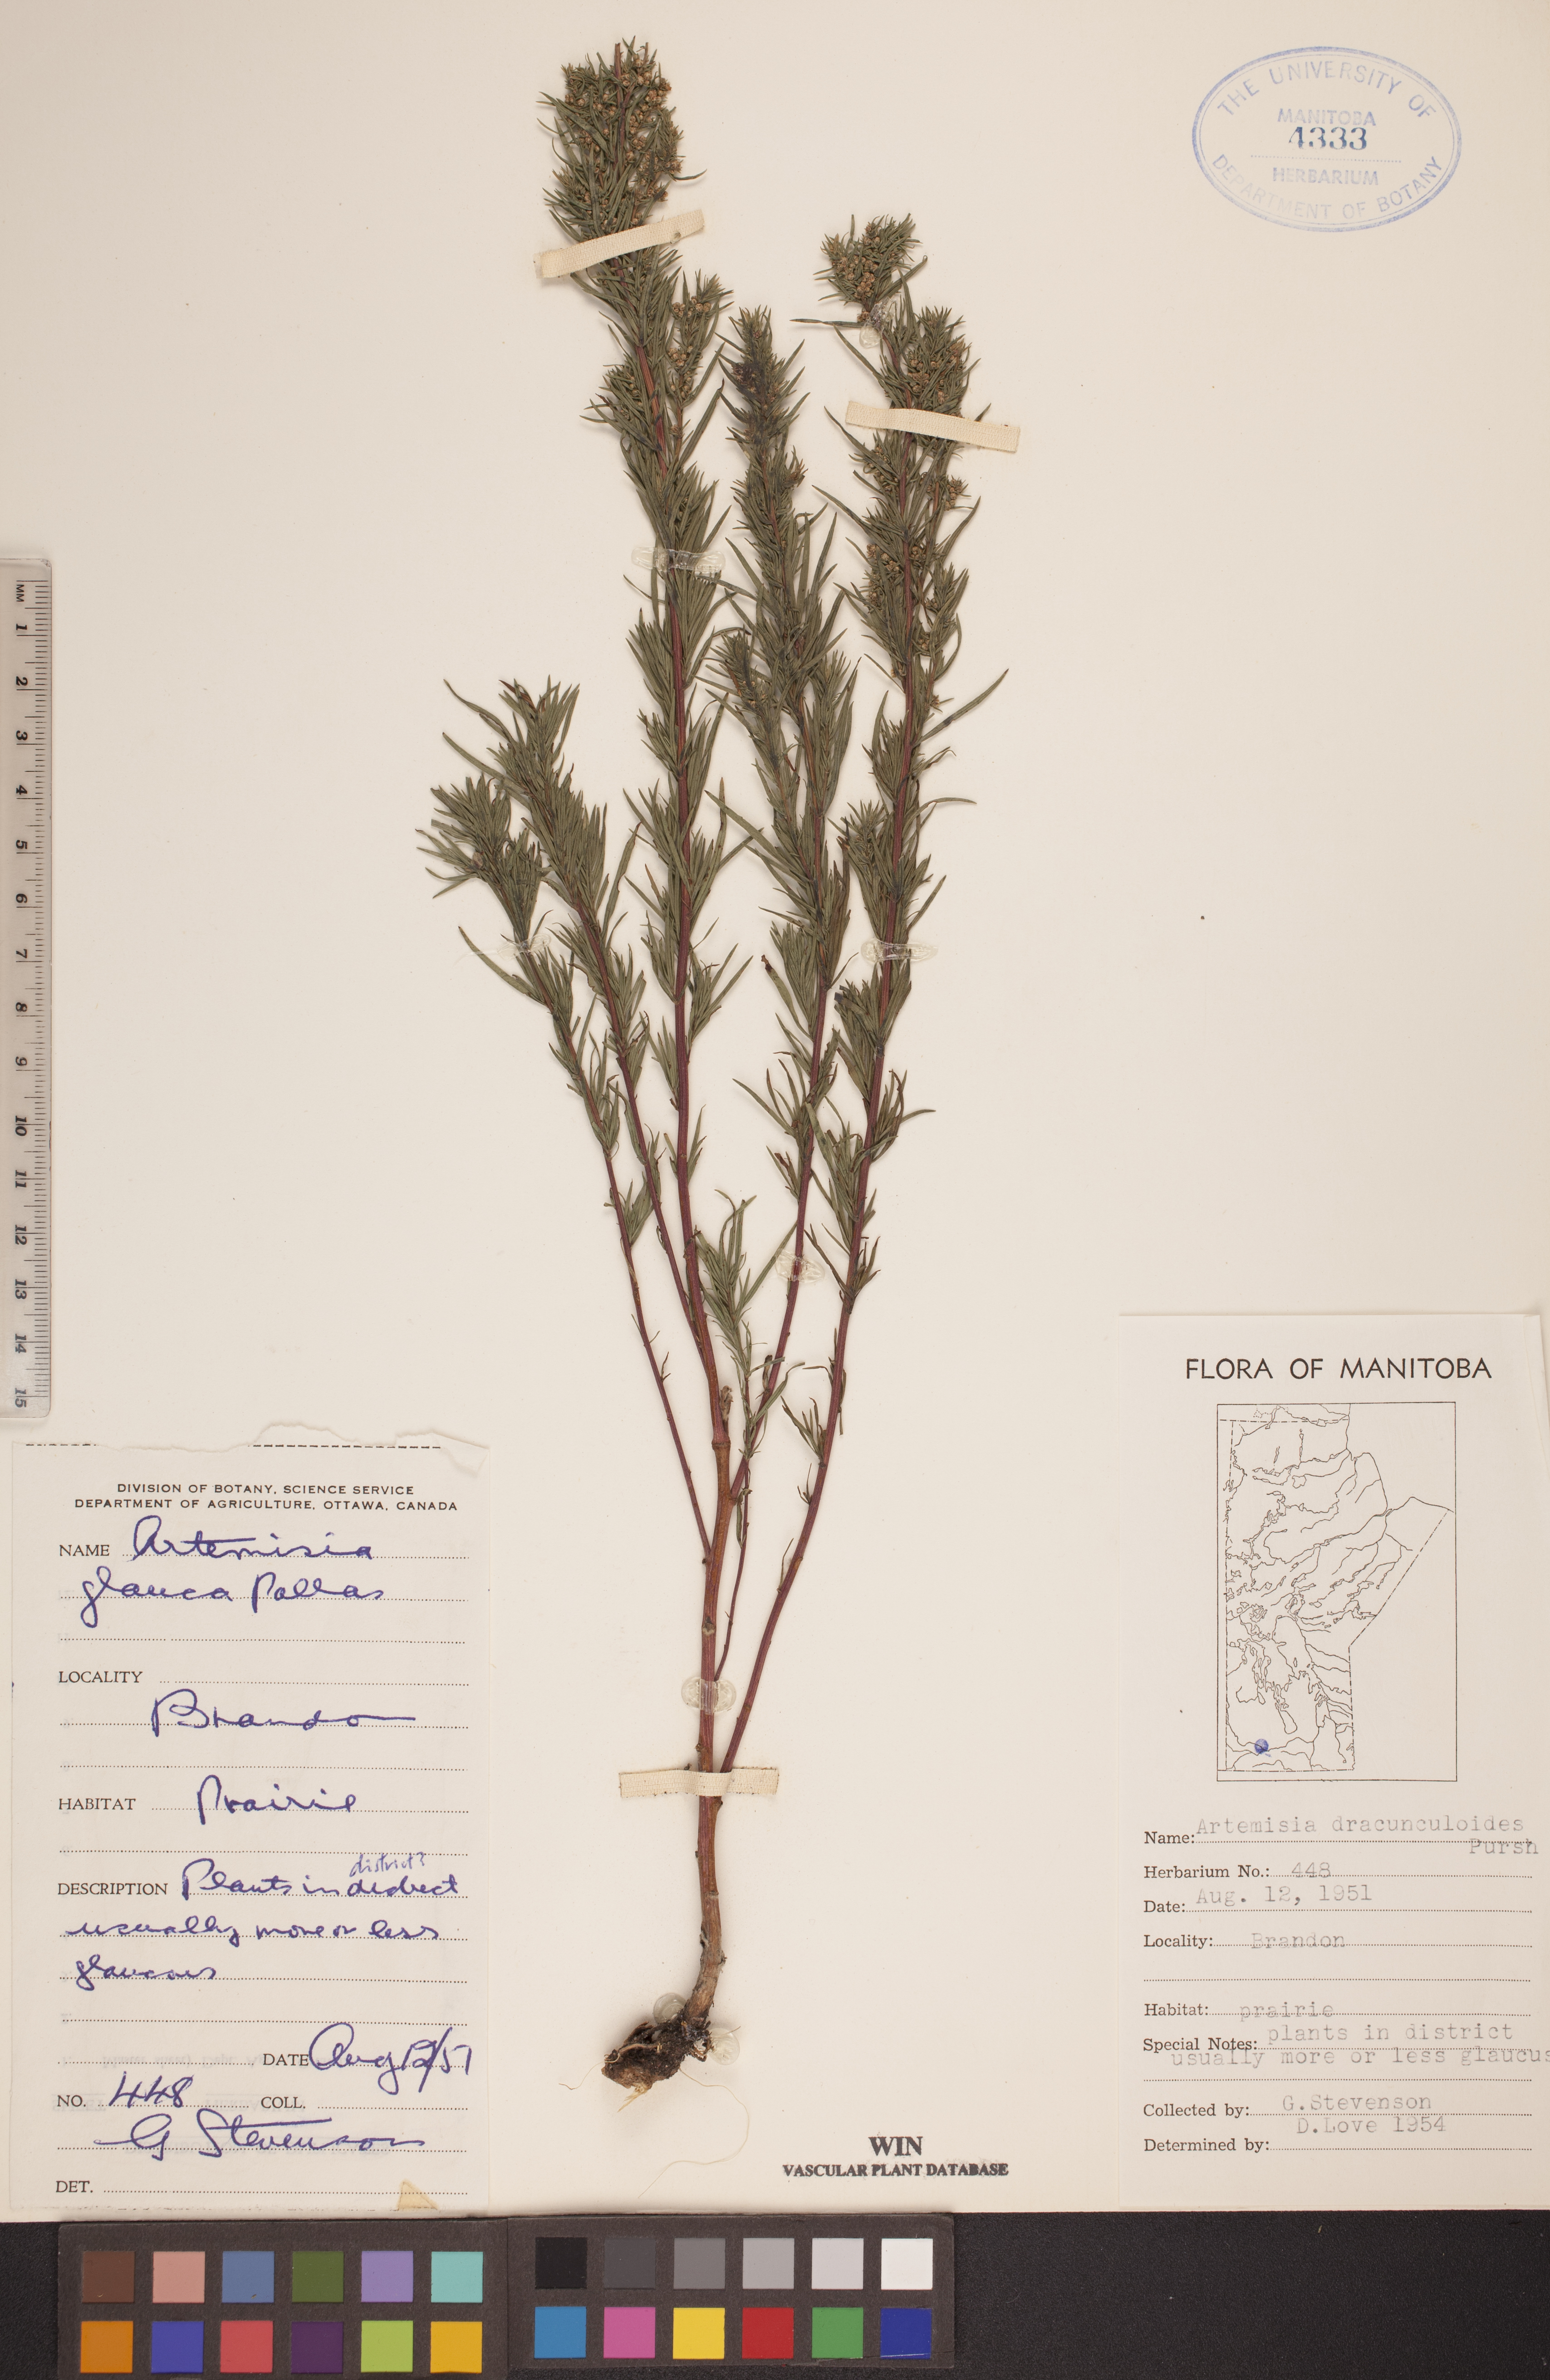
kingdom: Plantae
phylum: Tracheophyta
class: Magnoliopsida
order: Asterales
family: Asteraceae
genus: Artemisia
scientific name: Artemisia dracunculus
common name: Tarragon
